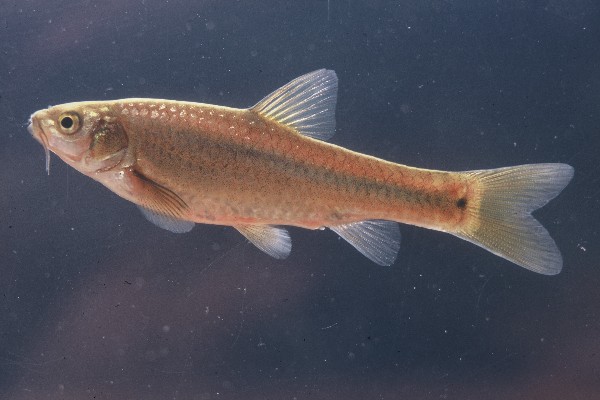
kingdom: Animalia
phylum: Chordata
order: Cypriniformes
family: Cyprinidae
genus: Enteromius
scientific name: Enteromius breviceps
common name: Shorthead barb
